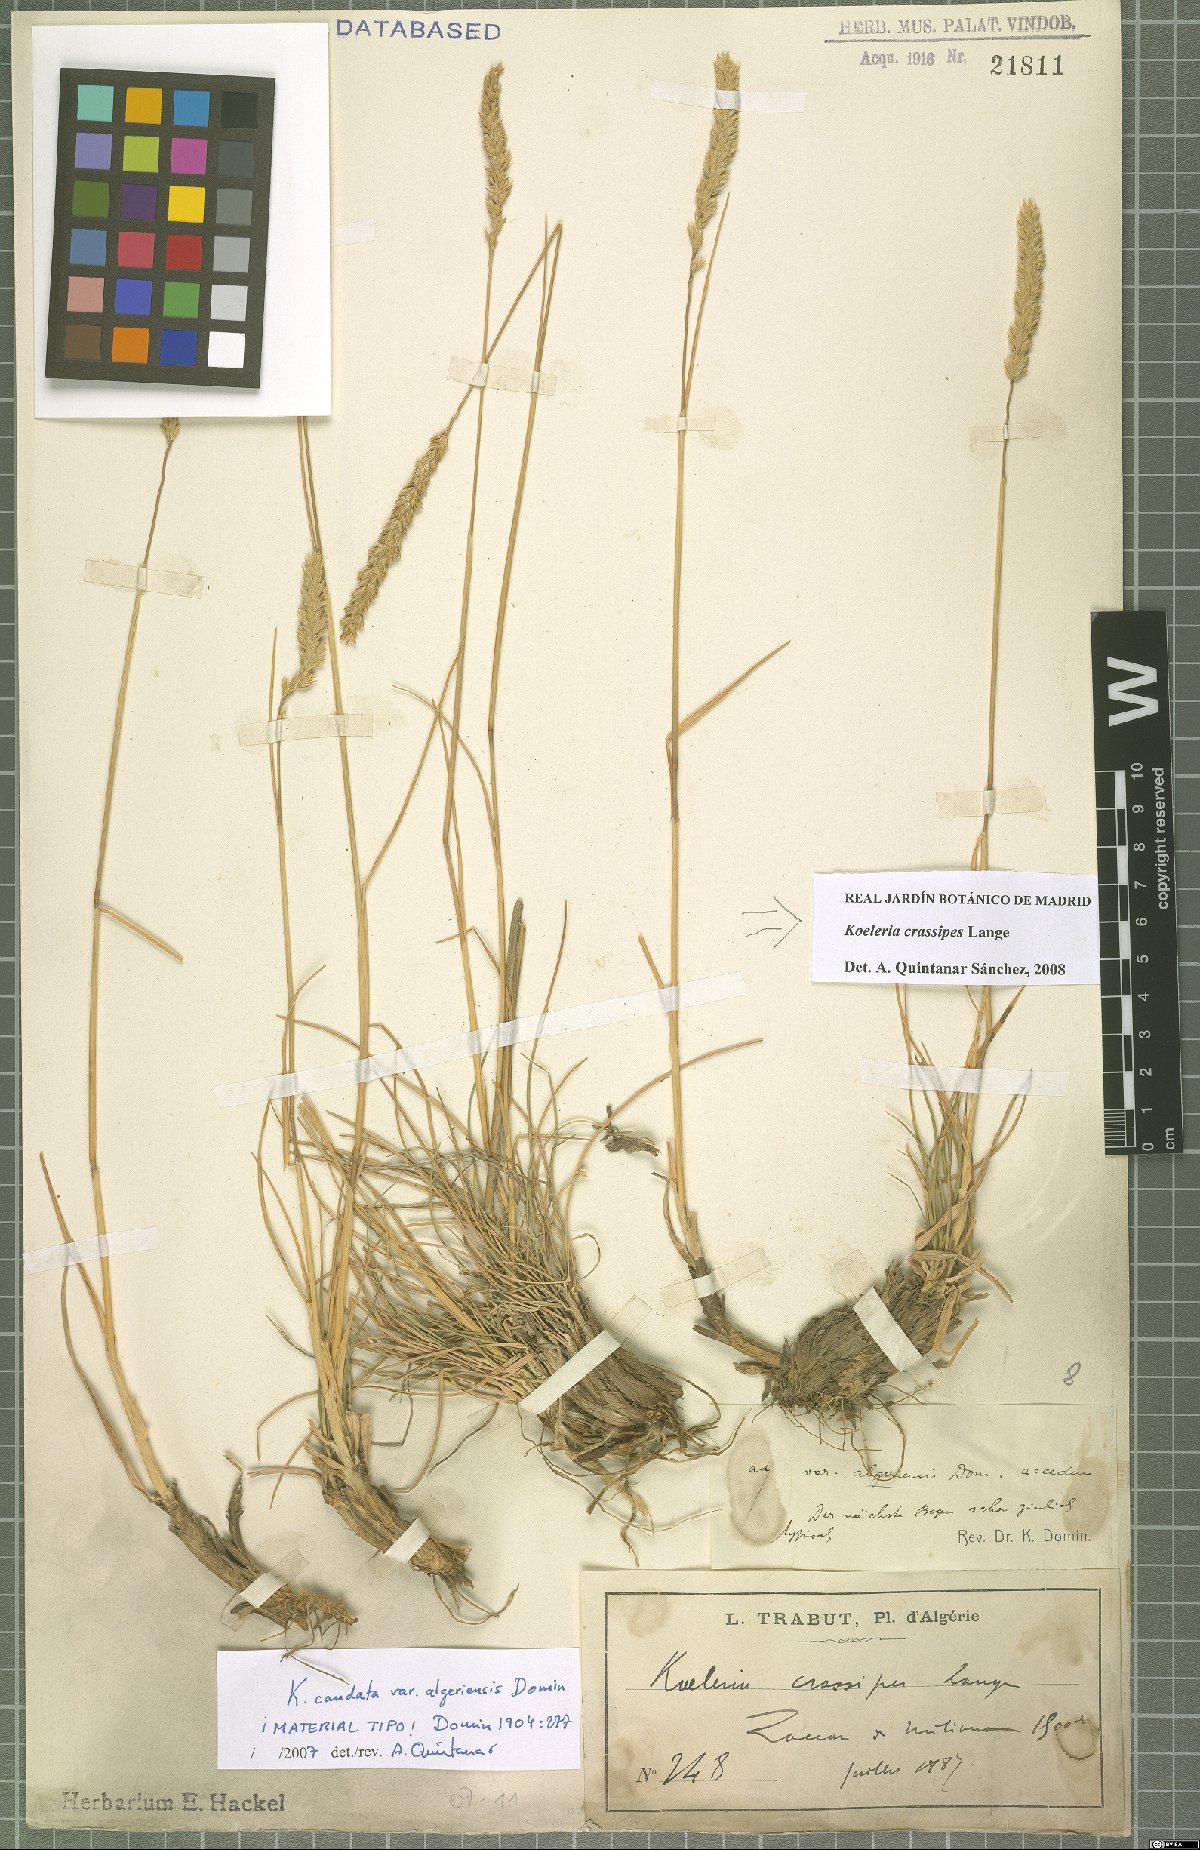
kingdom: Plantae
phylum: Tracheophyta
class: Liliopsida
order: Poales
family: Poaceae
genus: Koeleria
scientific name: Koeleria crassipes
